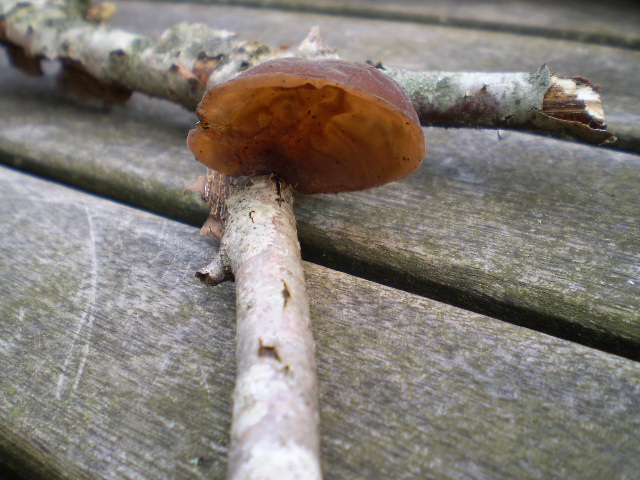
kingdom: Fungi
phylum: Basidiomycota
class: Agaricomycetes
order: Auriculariales
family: Auriculariaceae
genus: Auricularia
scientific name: Auricularia auricula-judae
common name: almindelig judasøre
